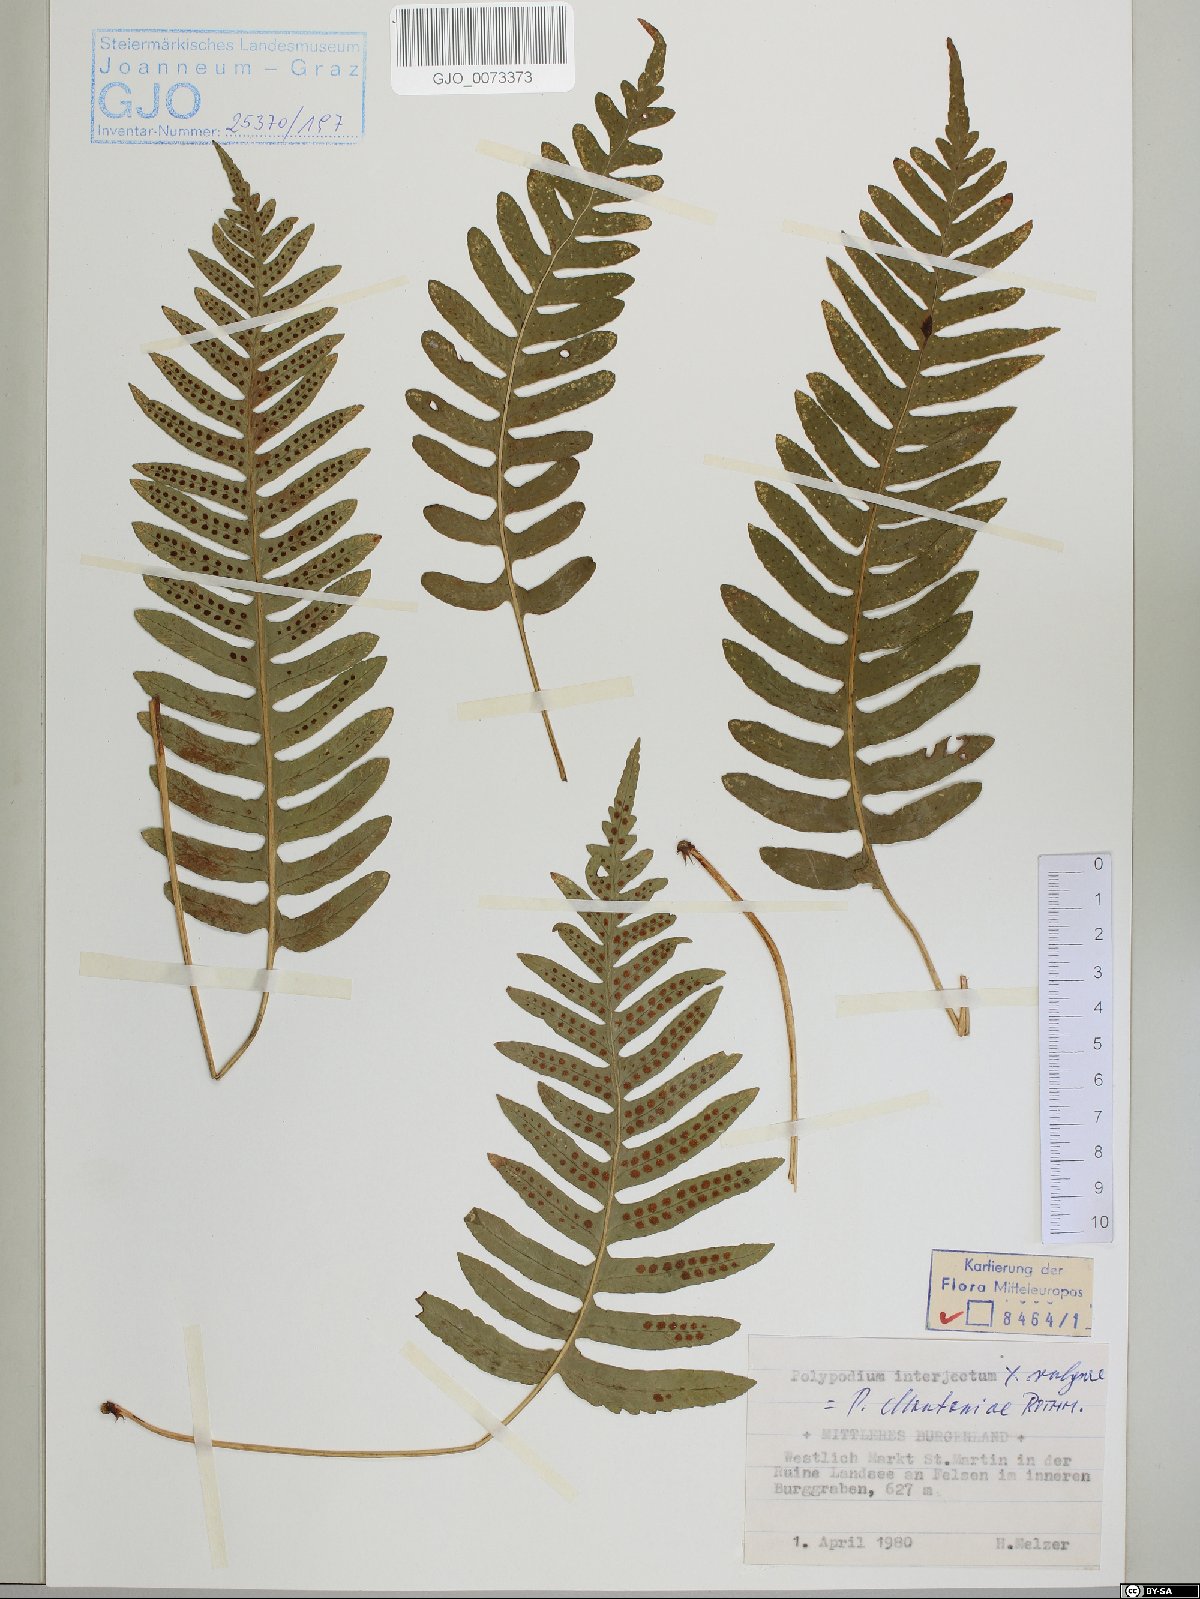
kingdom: Plantae
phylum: Tracheophyta
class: Polypodiopsida
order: Polypodiales
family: Polypodiaceae
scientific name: Polypodiaceae
